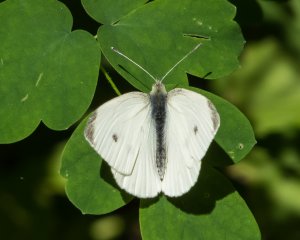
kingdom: Animalia
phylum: Arthropoda
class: Insecta
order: Lepidoptera
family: Pieridae
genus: Pieris
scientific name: Pieris rapae
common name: Cabbage White
